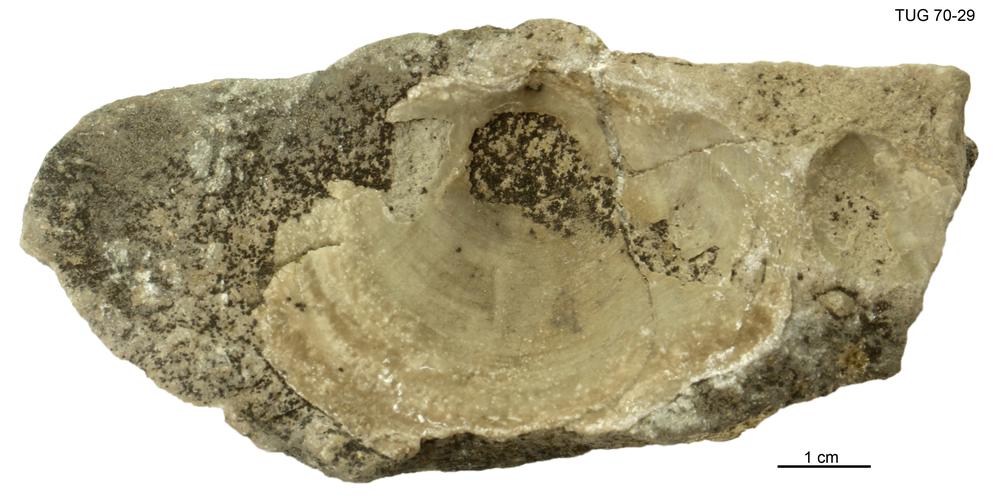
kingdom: Animalia
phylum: Mollusca
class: Bivalvia
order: Lucinida
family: Lucinidae
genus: Illionia
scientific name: Illionia Lucina prisca
